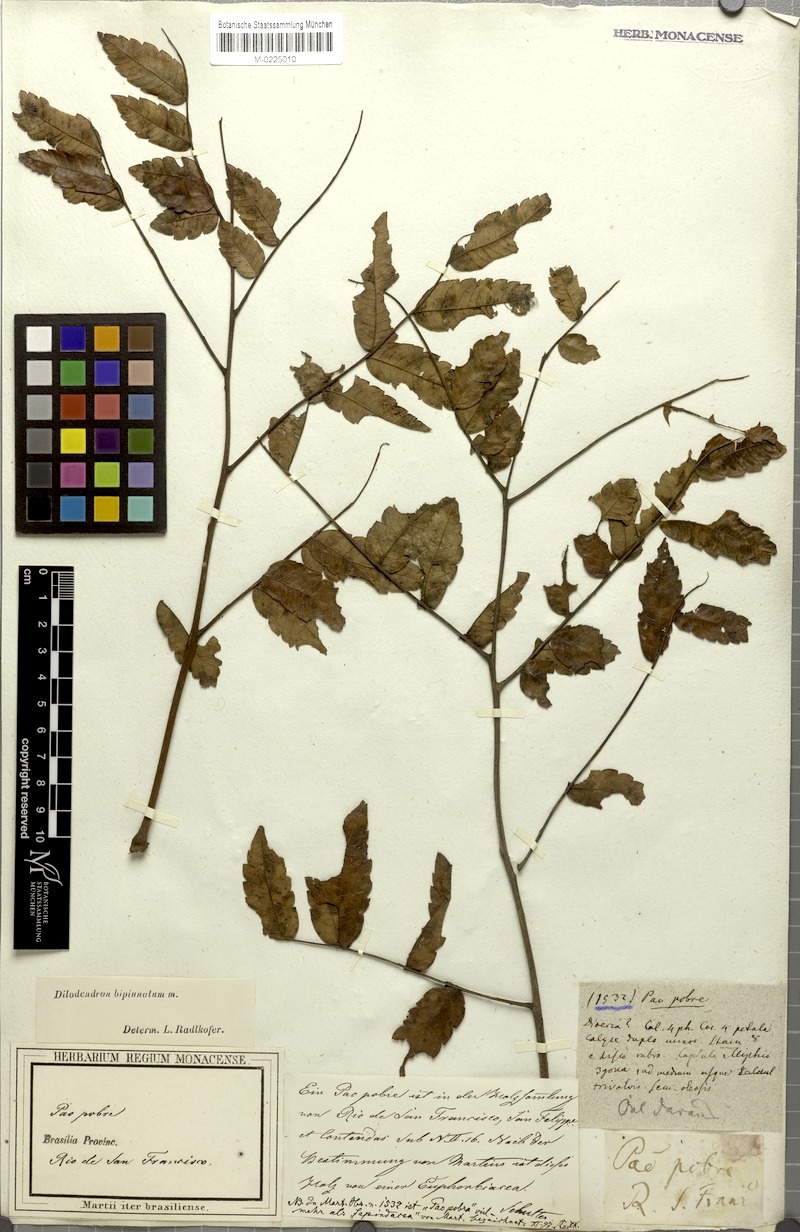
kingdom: Plantae
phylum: Tracheophyta
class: Magnoliopsida
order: Sapindales
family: Sapindaceae
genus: Dilodendron
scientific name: Dilodendron bipinnatum
